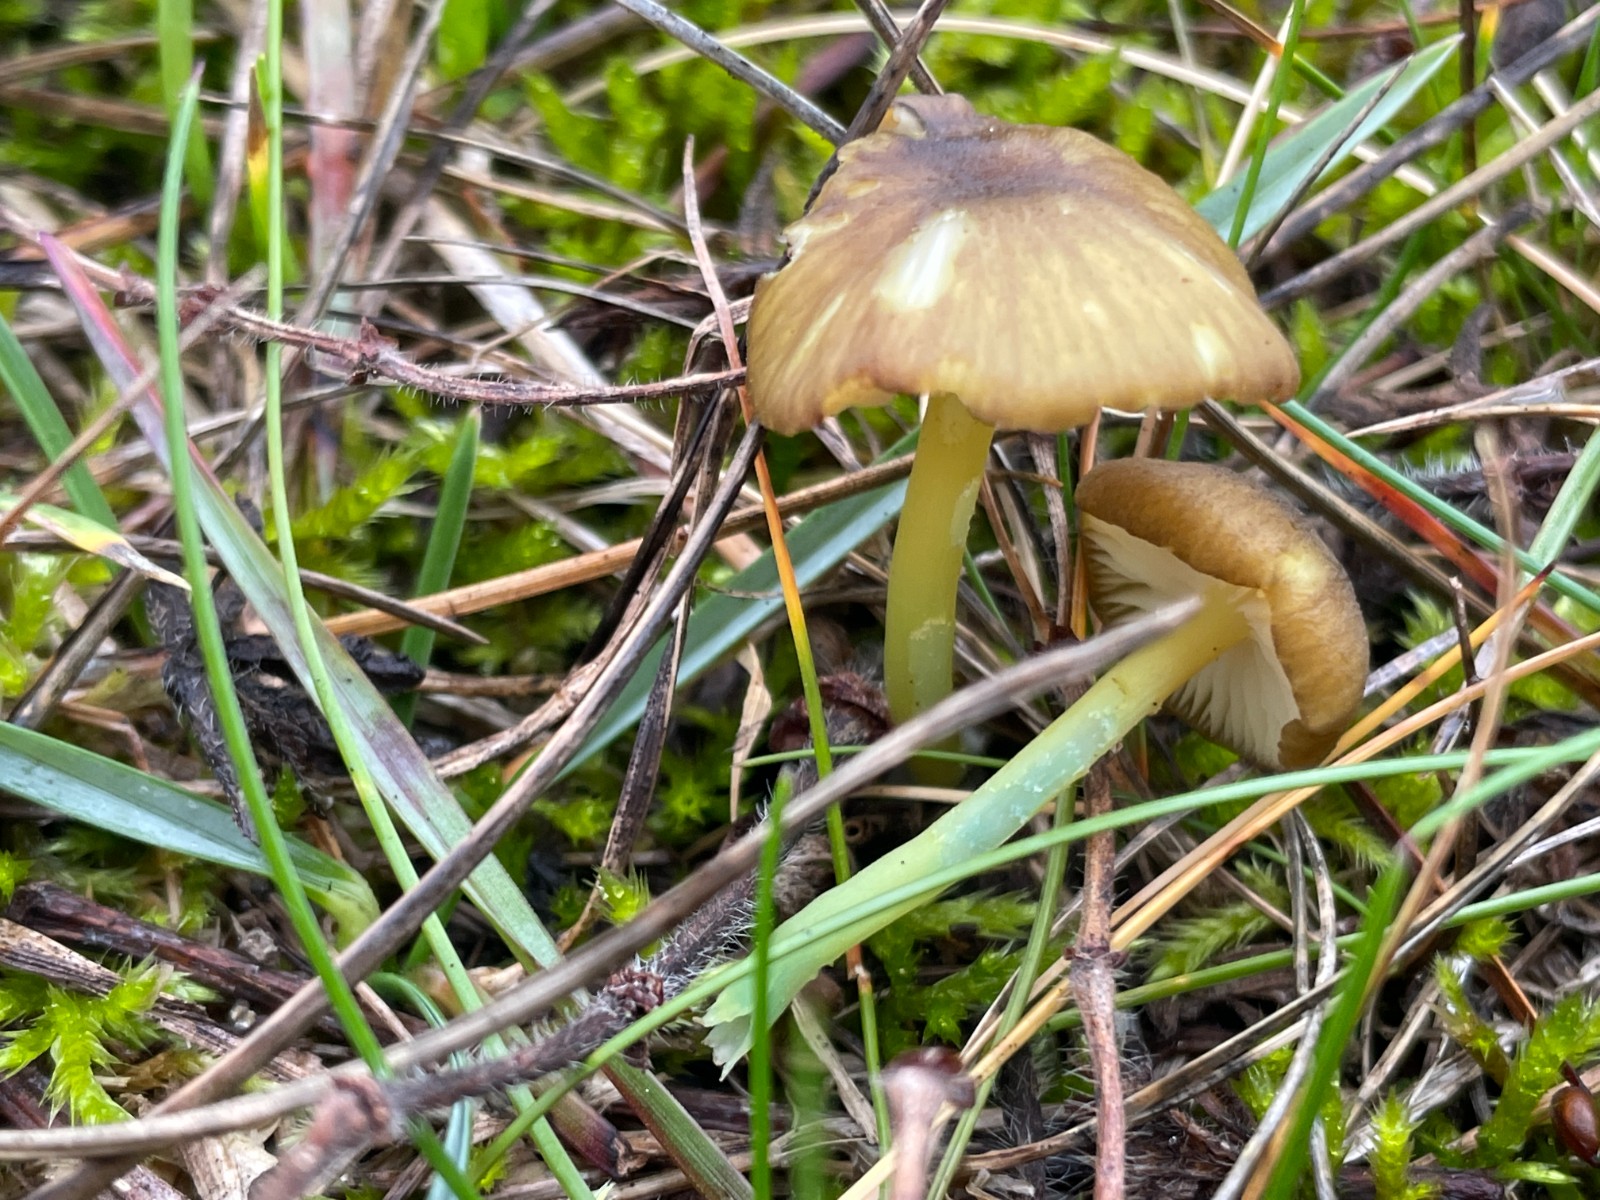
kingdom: Fungi
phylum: Basidiomycota
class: Agaricomycetes
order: Agaricales
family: Entolomataceae
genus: Entoloma
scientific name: Entoloma incanum
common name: grøngul rødblad
